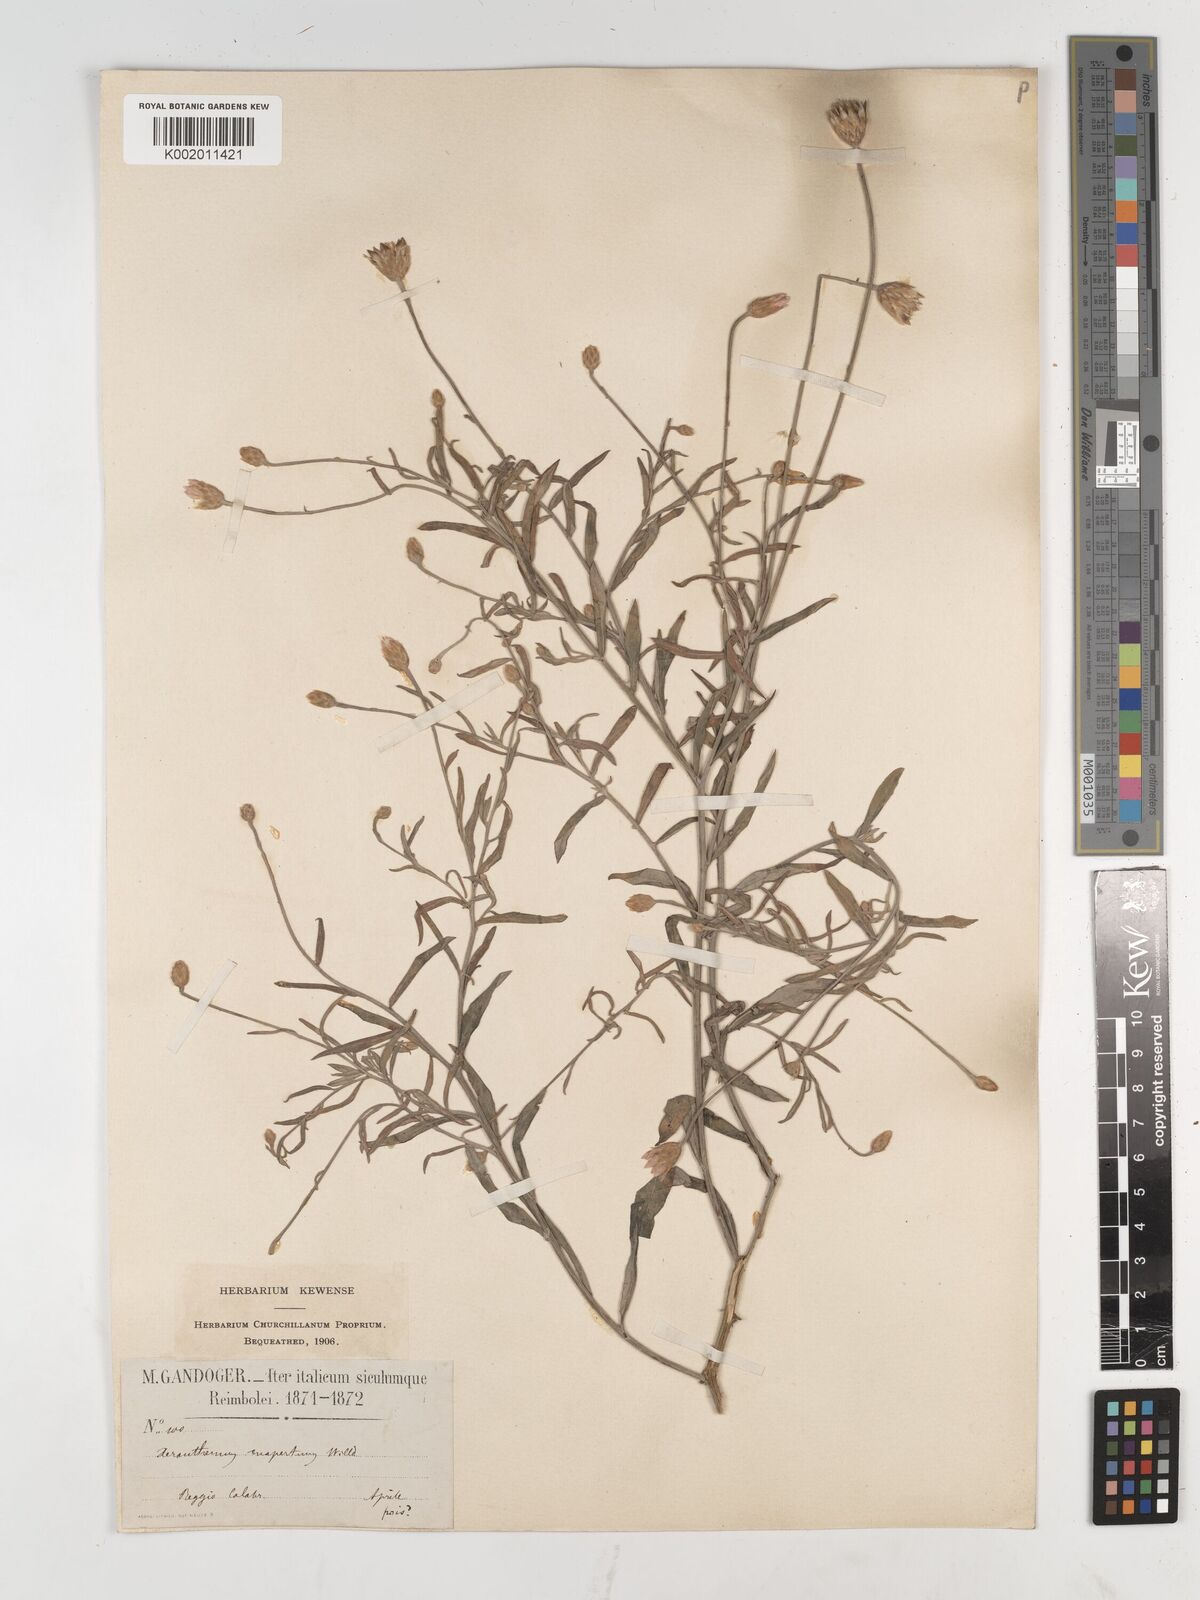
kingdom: Plantae
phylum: Tracheophyta
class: Magnoliopsida
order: Asterales
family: Asteraceae
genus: Xeranthemum
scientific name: Xeranthemum inapertum
